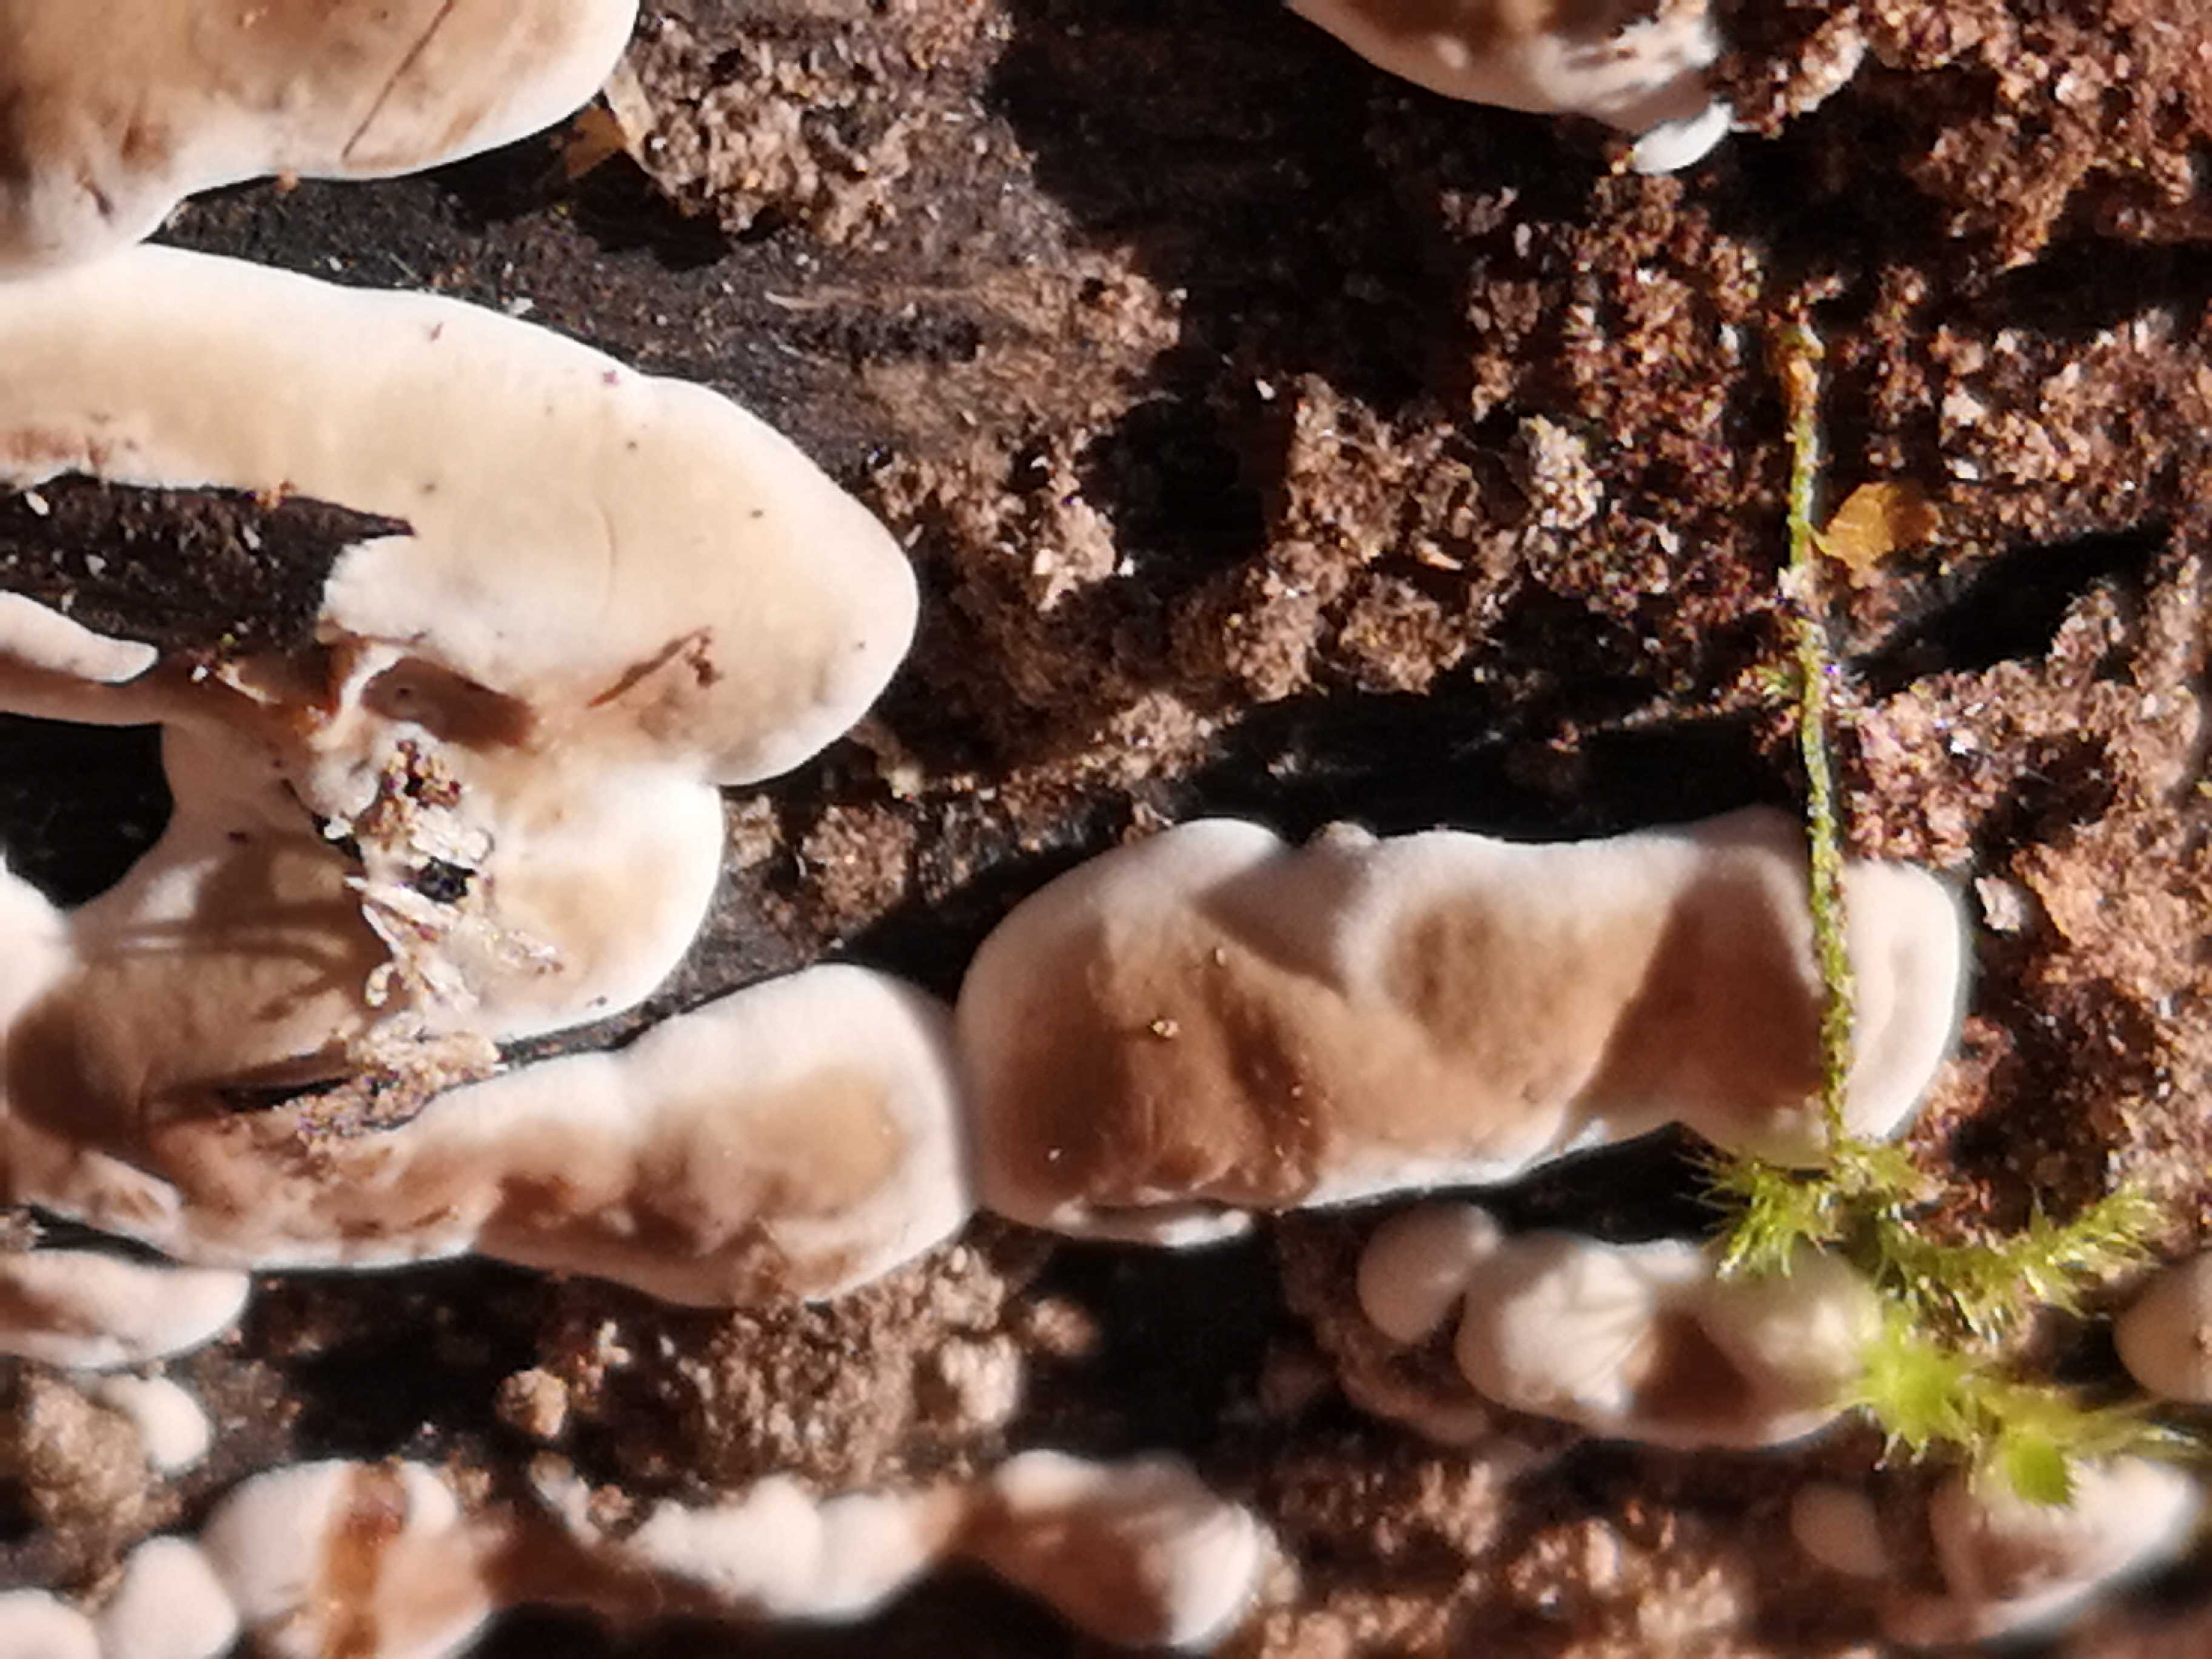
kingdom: Fungi
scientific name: Fungi
